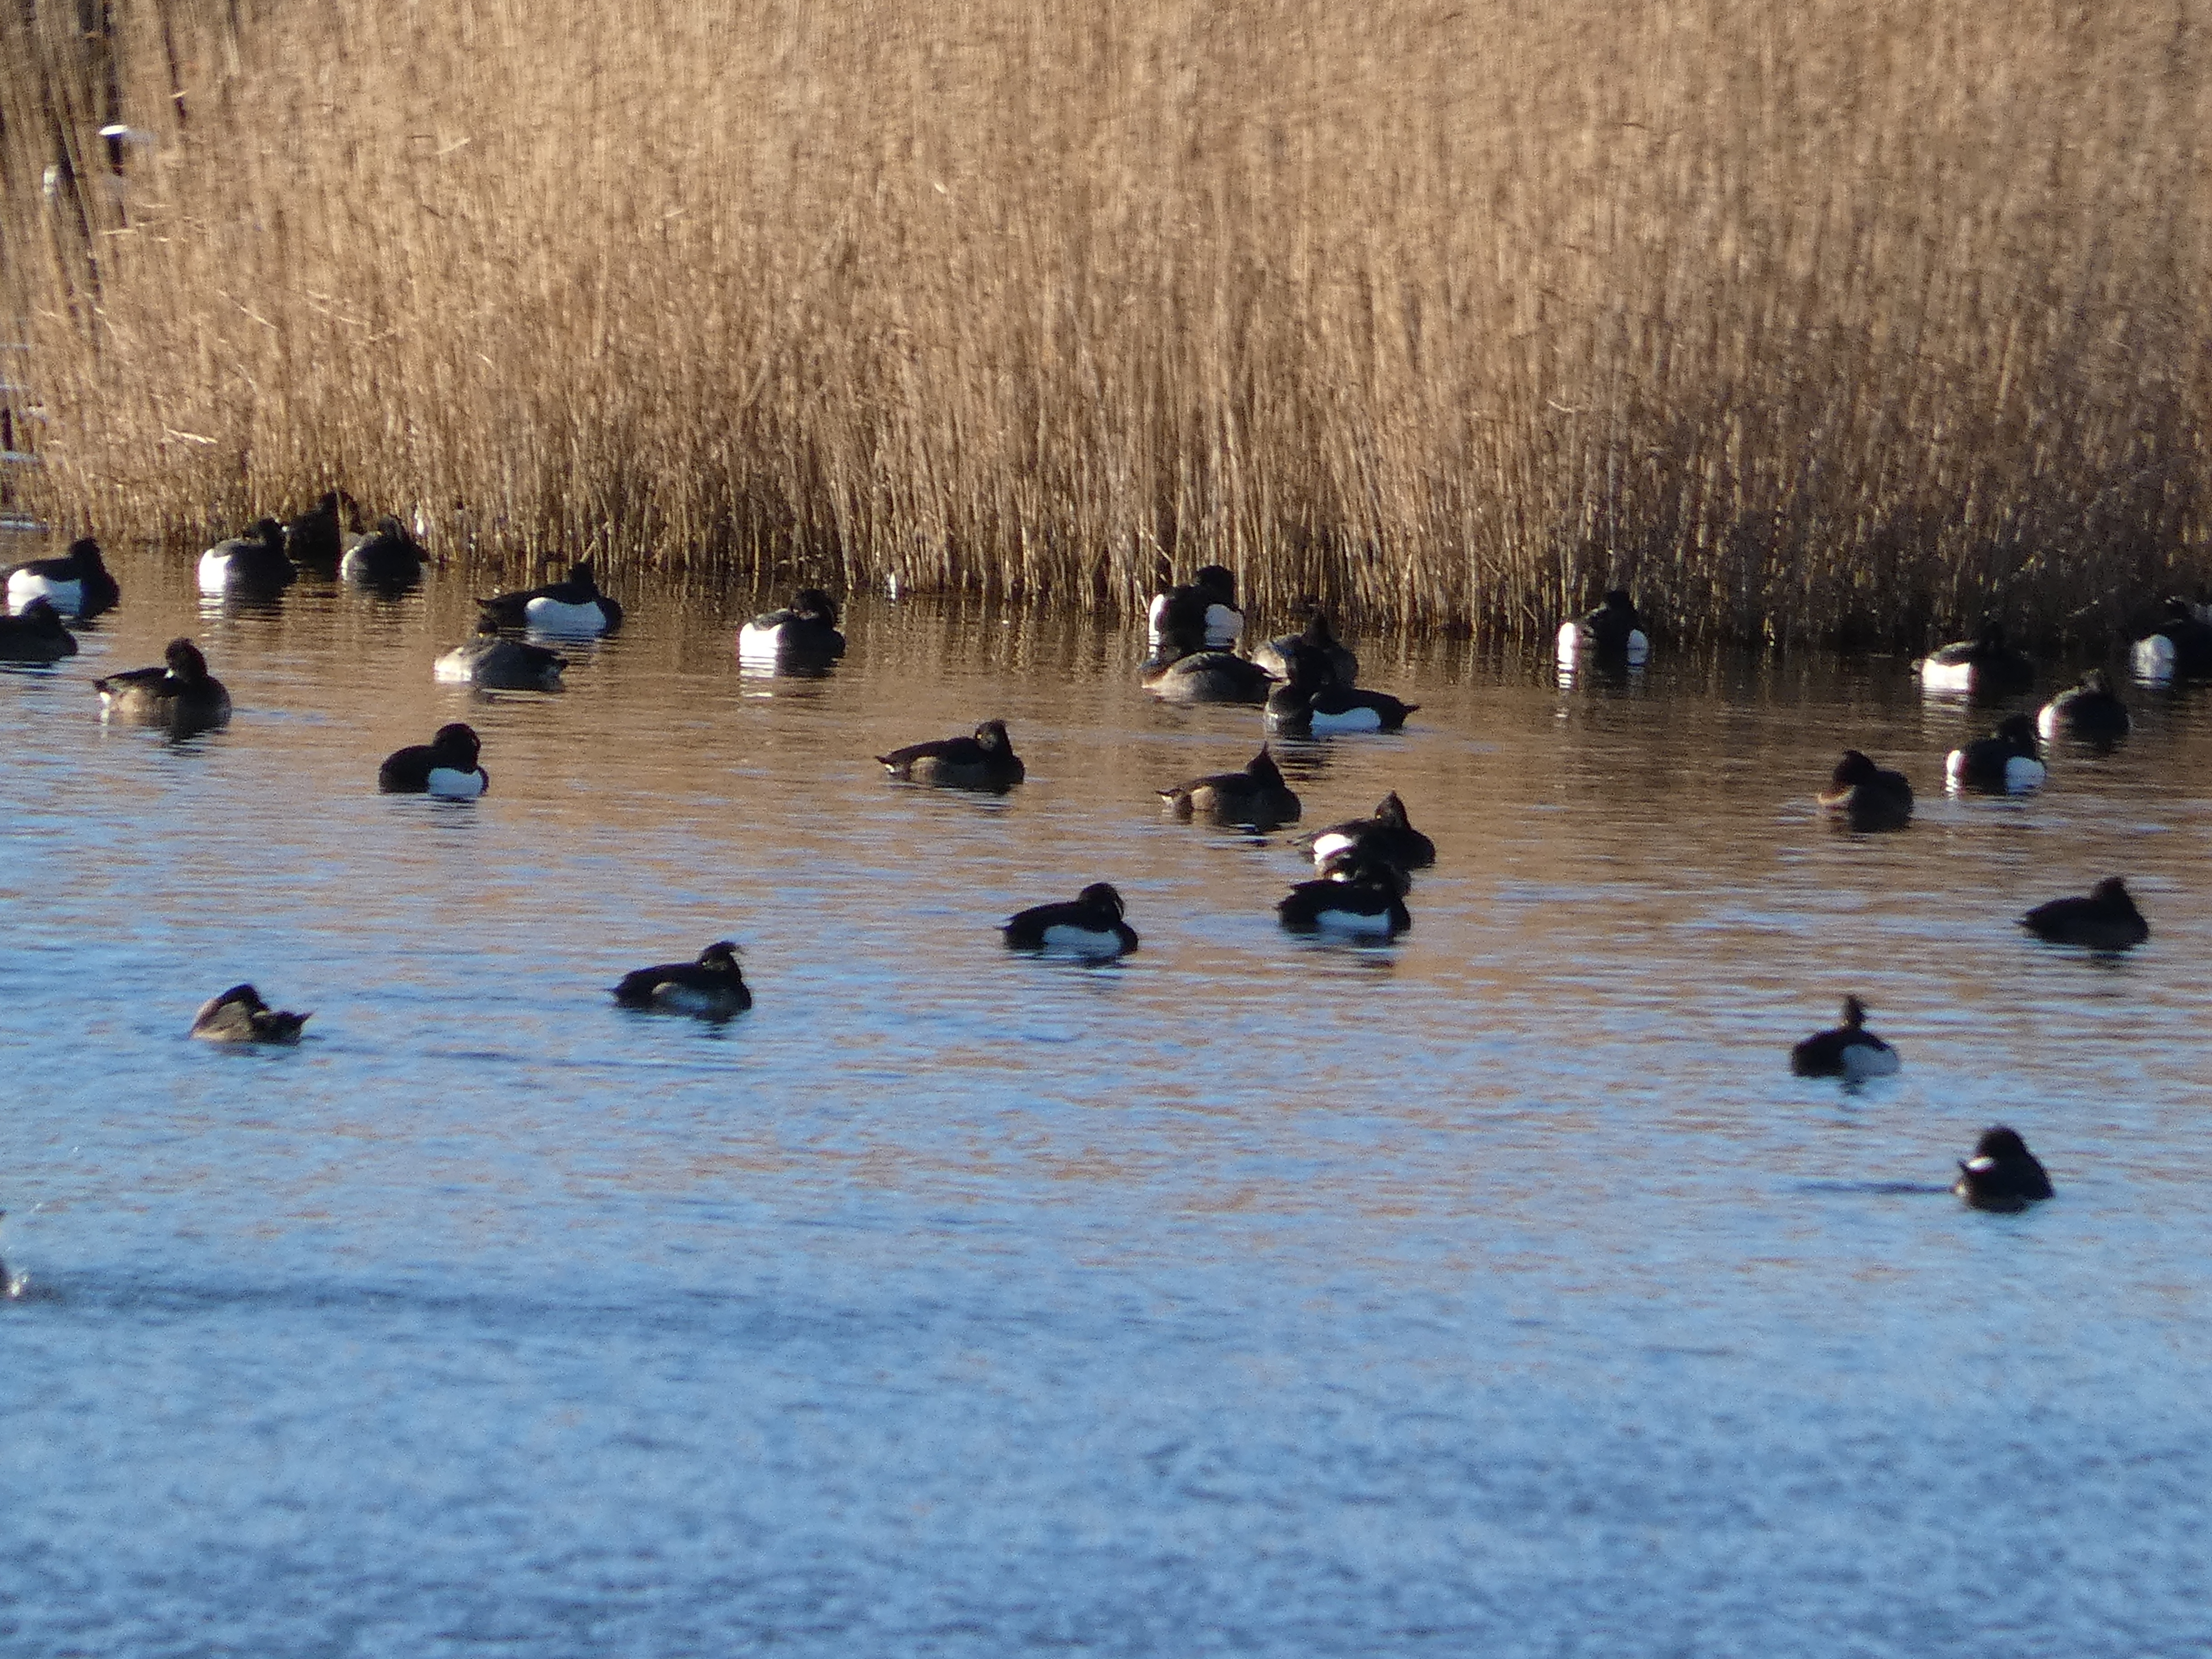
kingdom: Animalia
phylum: Chordata
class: Aves
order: Anseriformes
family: Anatidae
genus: Aythya
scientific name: Aythya fuligula
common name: Troldand
